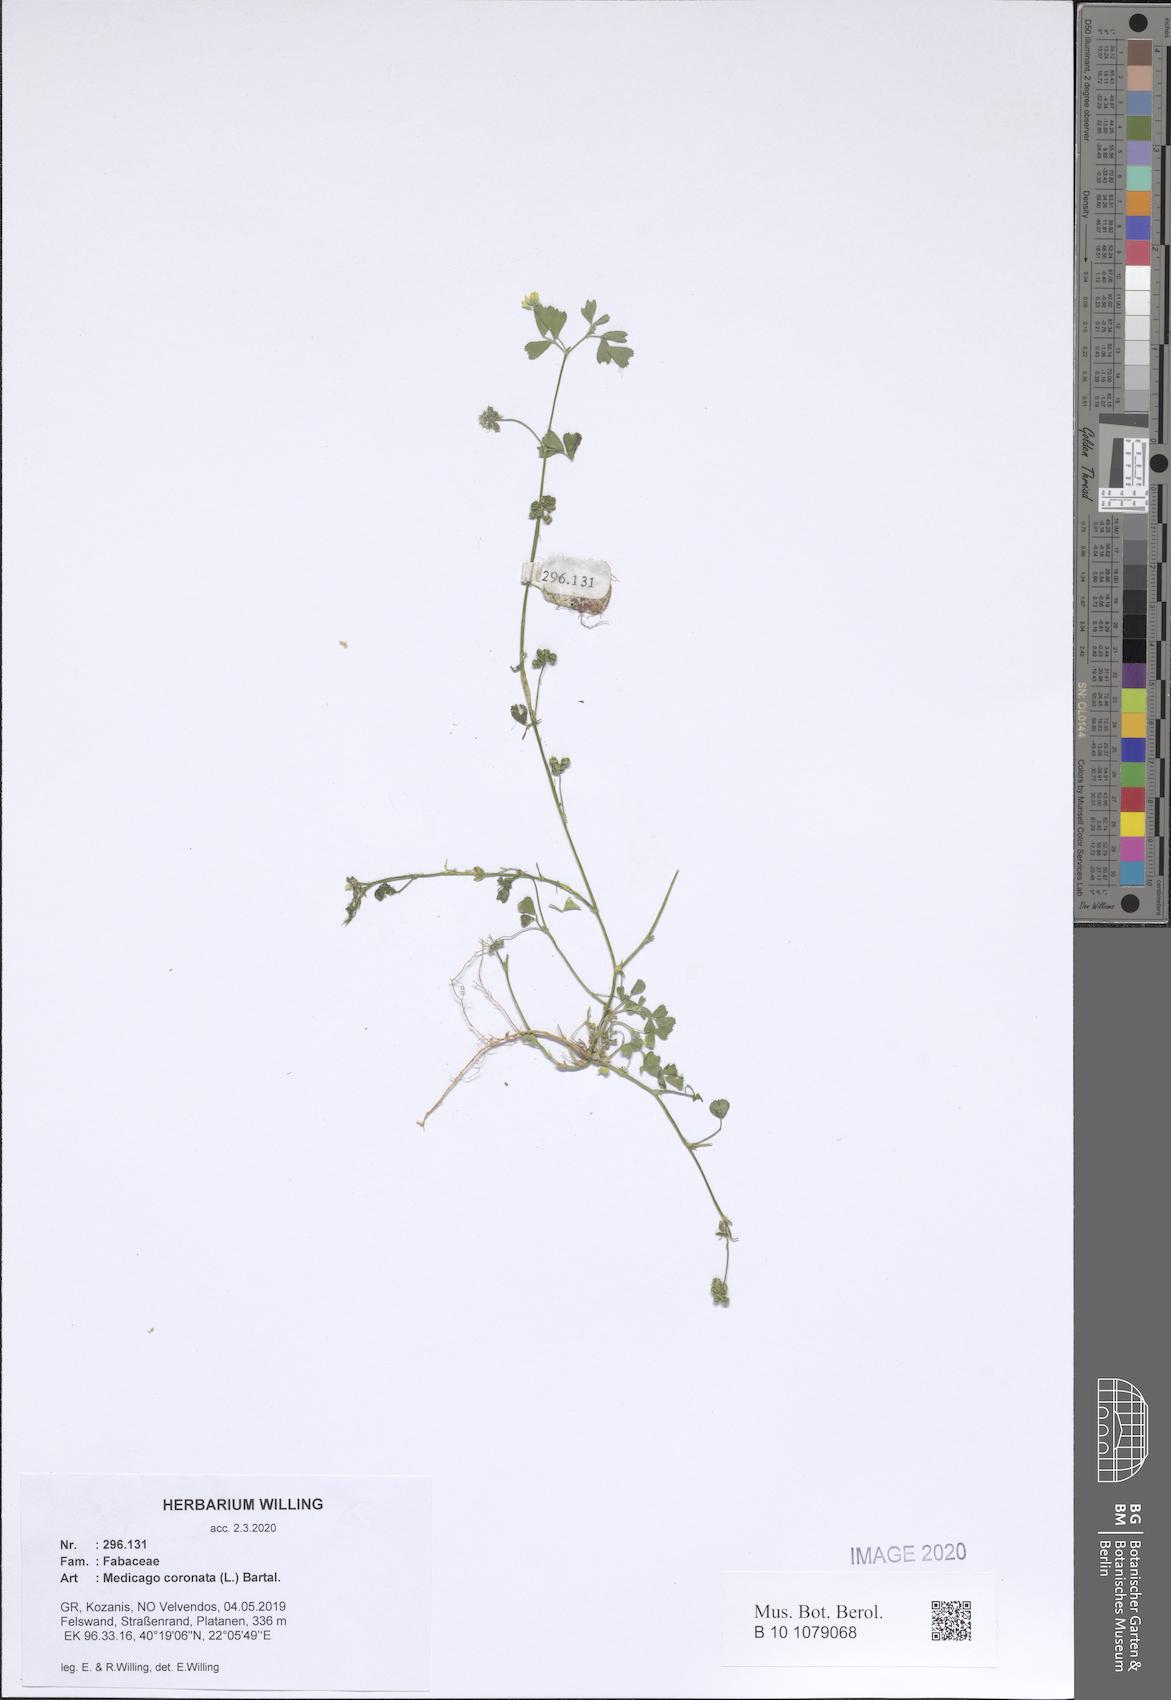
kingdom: Plantae
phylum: Tracheophyta
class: Magnoliopsida
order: Fabales
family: Fabaceae
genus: Medicago
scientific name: Medicago coronata
